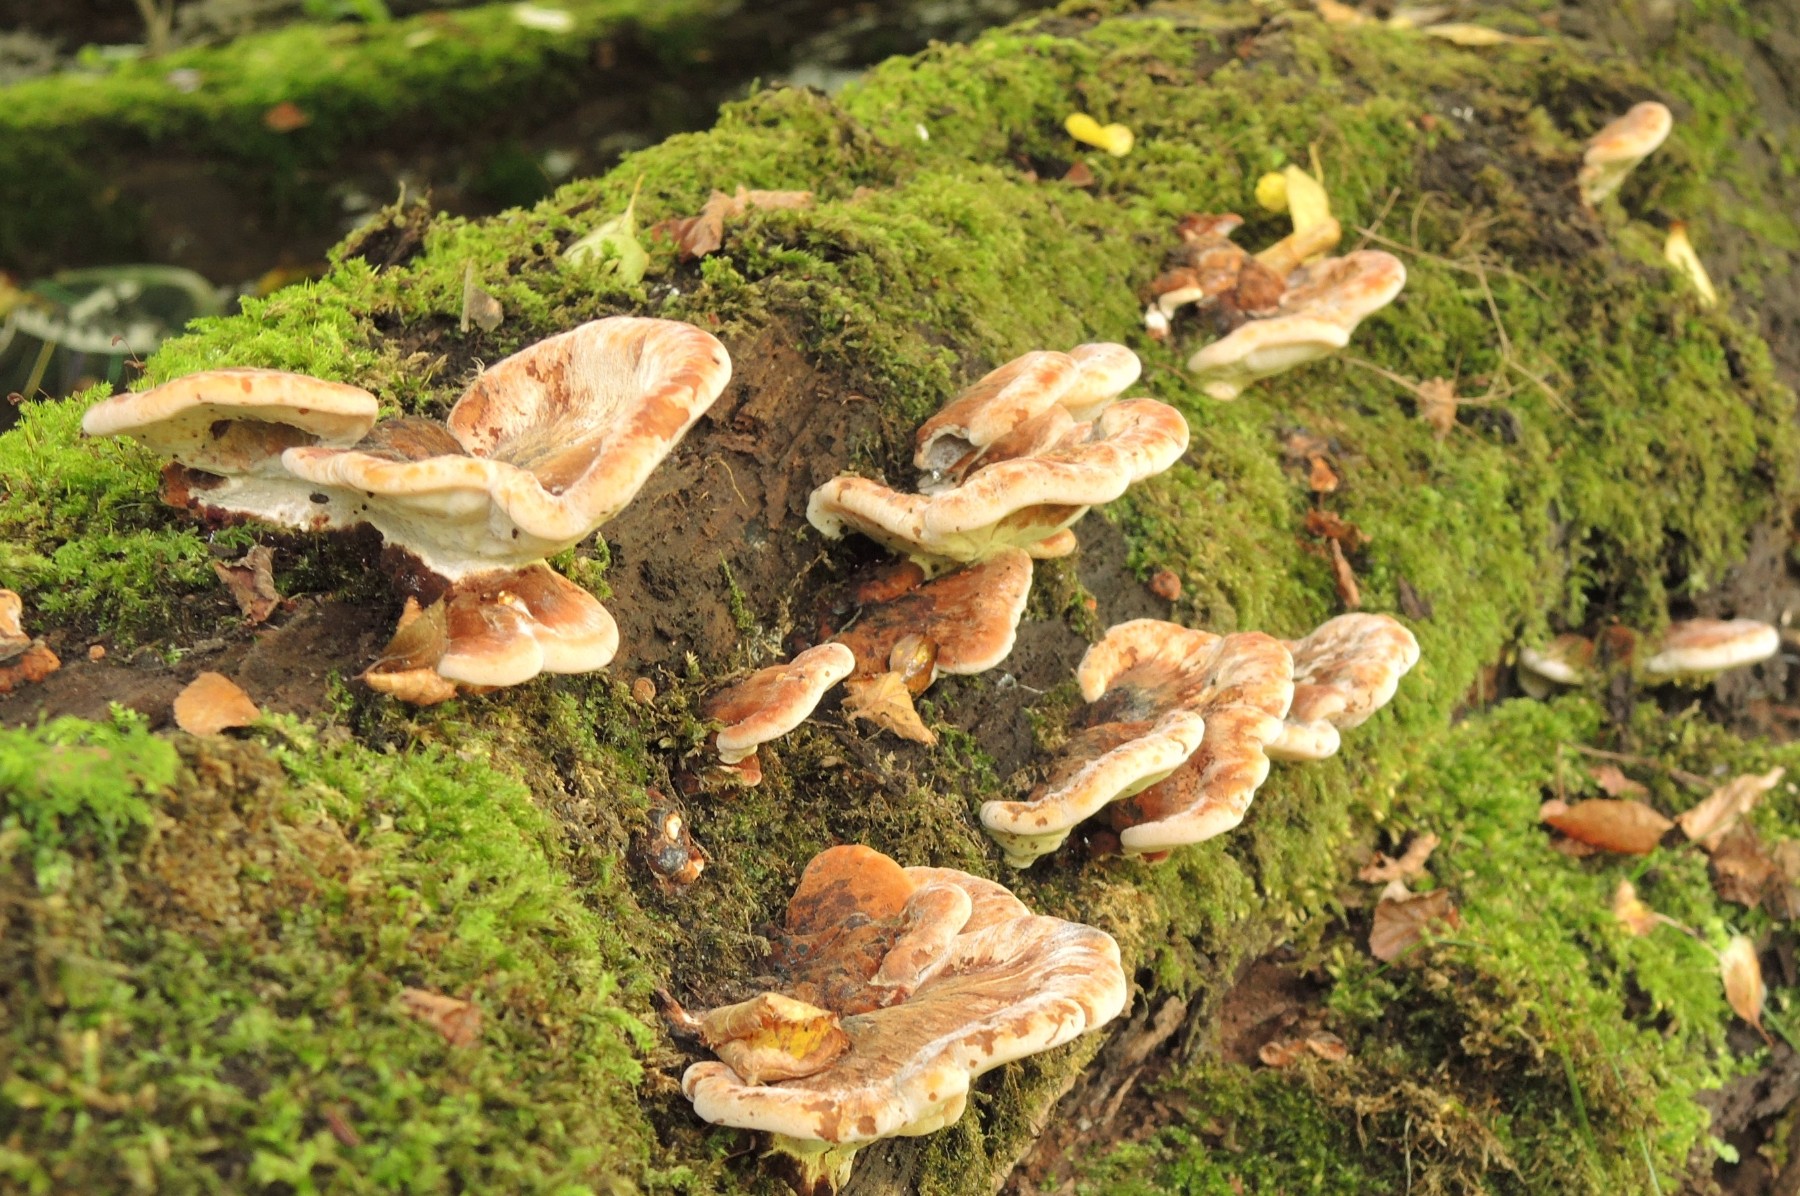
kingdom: Fungi
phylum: Basidiomycota
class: Agaricomycetes
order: Polyporales
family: Ischnodermataceae
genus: Ischnoderma
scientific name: Ischnoderma resinosum
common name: løv-tjæreporesvamp
